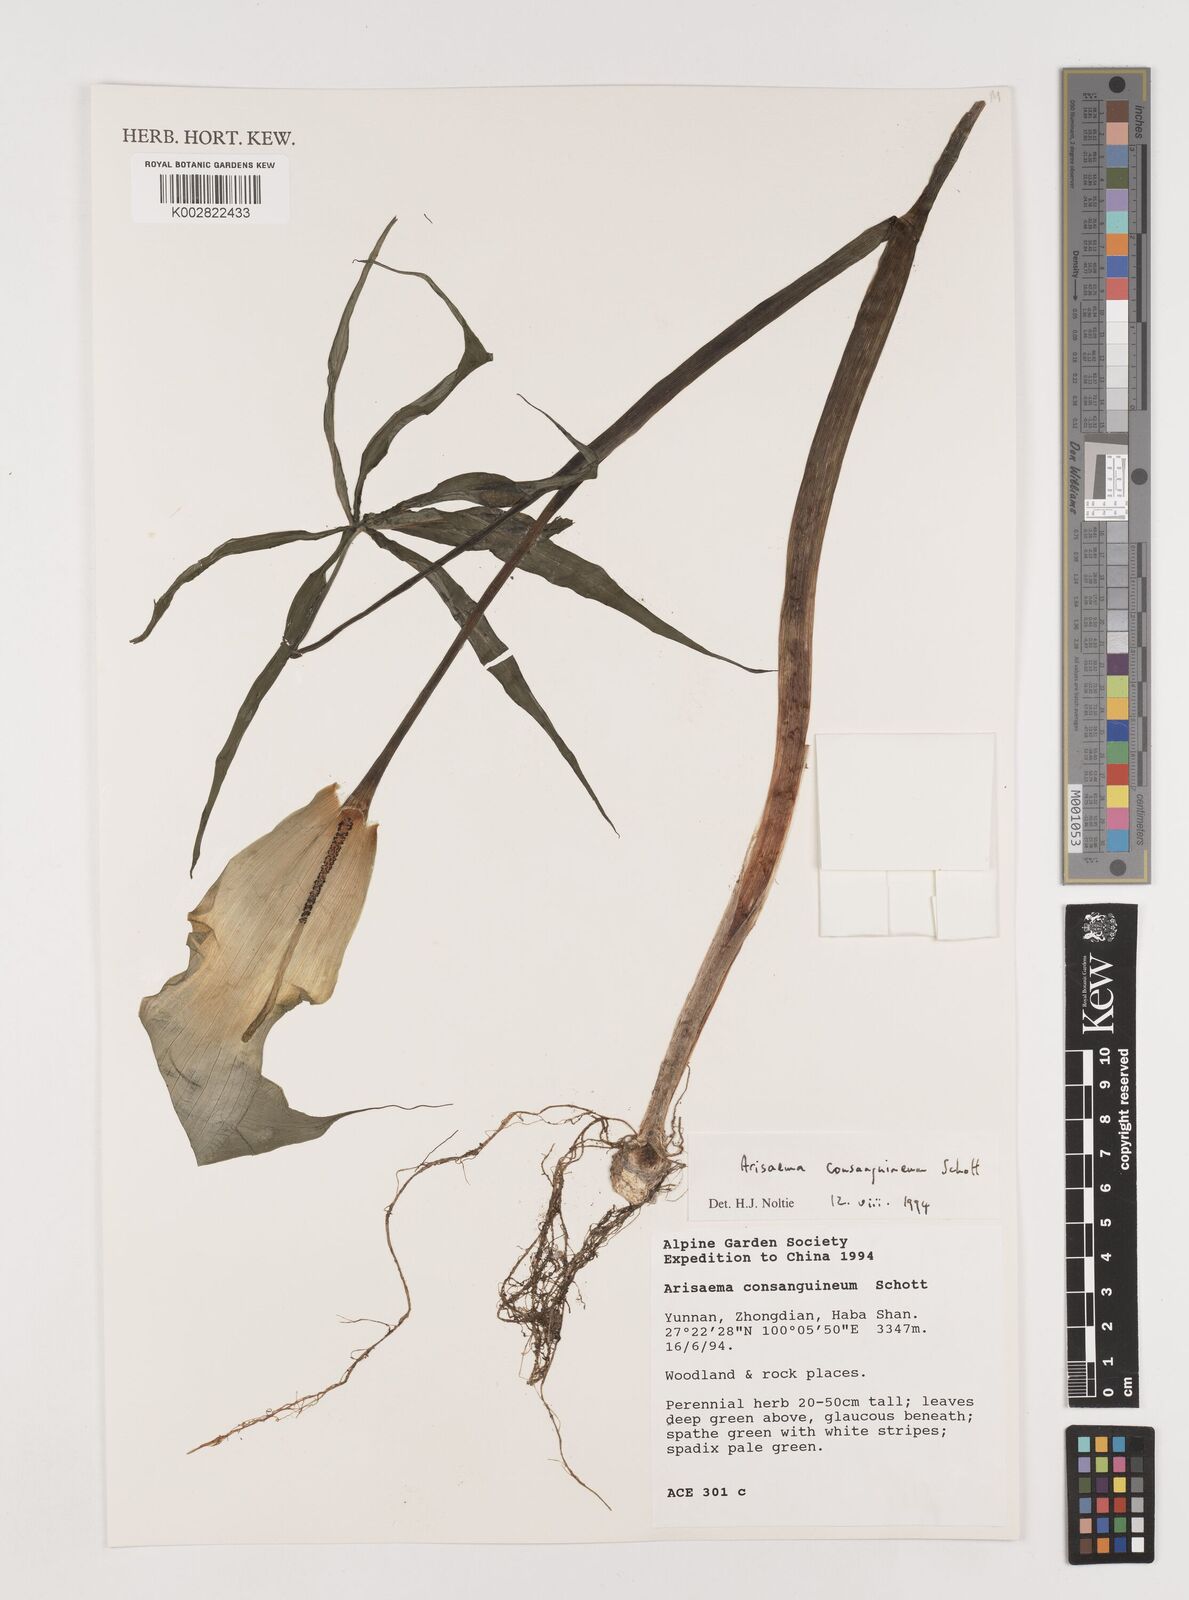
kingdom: Plantae
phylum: Tracheophyta
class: Liliopsida
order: Alismatales
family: Araceae
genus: Arisaema
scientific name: Arisaema erubescens
